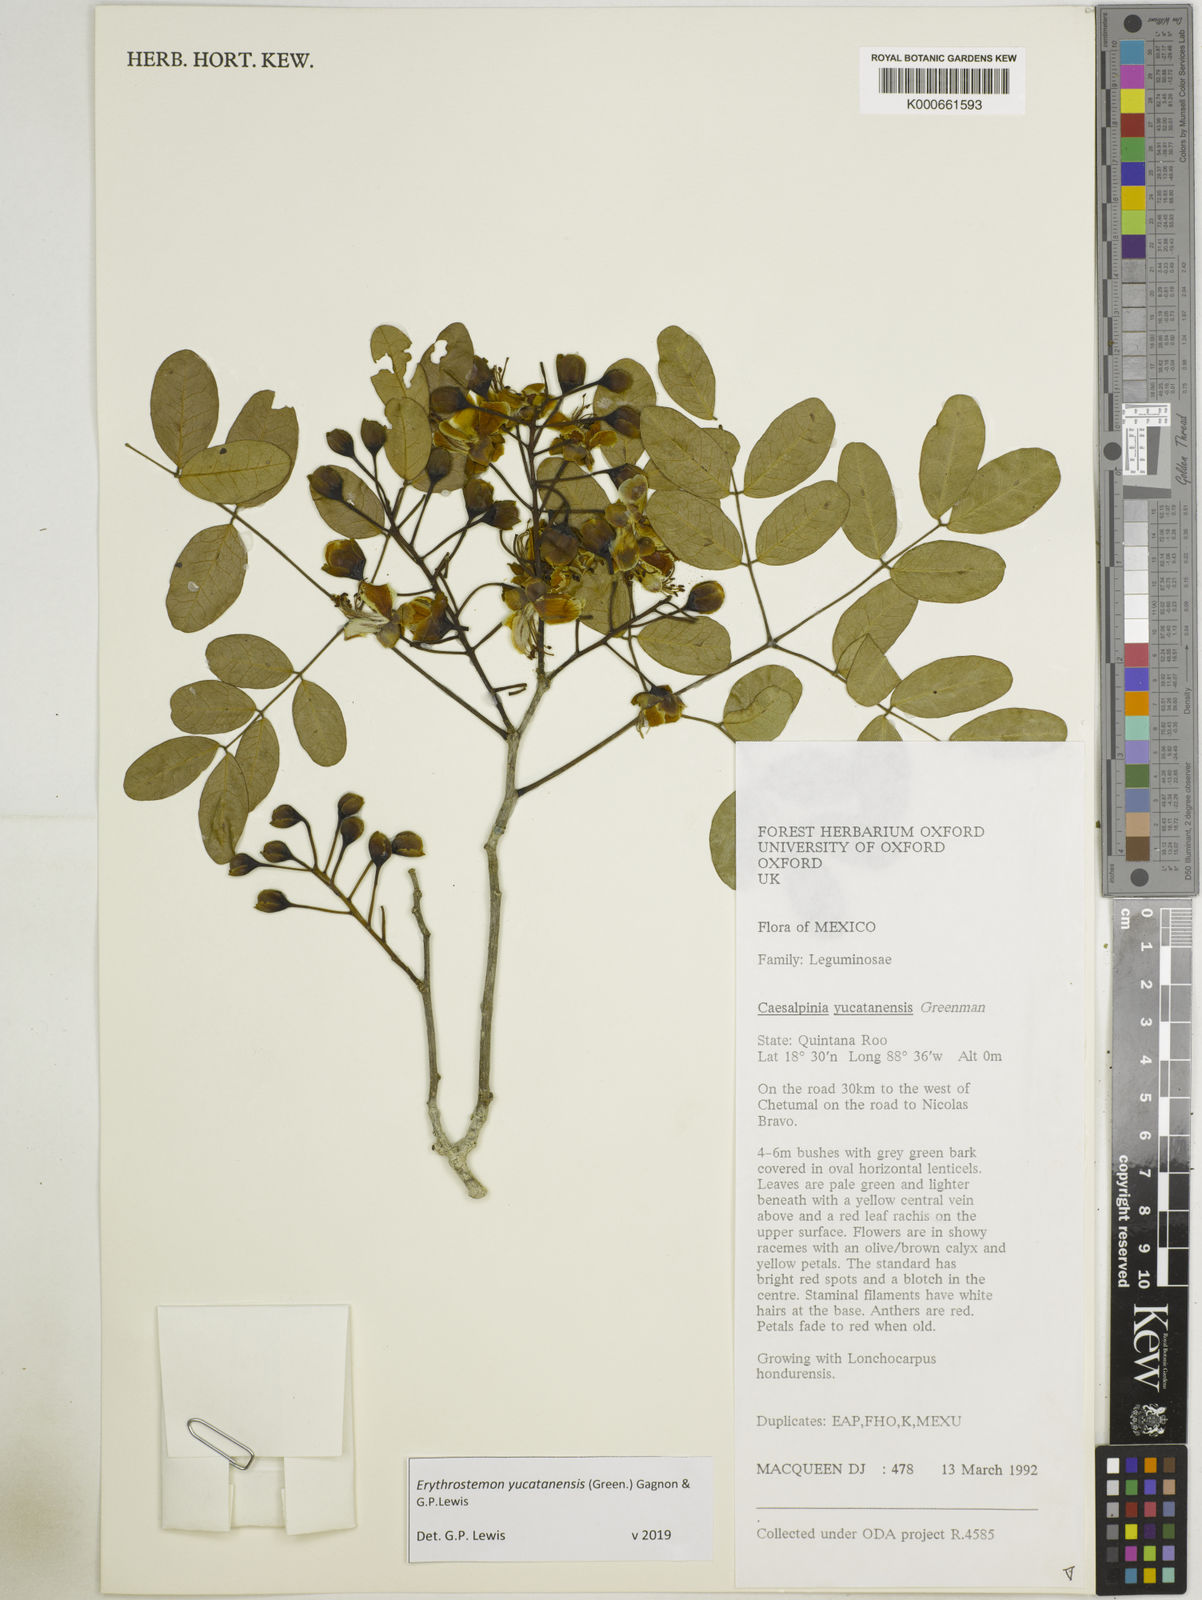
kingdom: Plantae
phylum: Tracheophyta
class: Magnoliopsida
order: Fabales
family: Fabaceae
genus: Caesalpinia
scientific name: Caesalpinia
